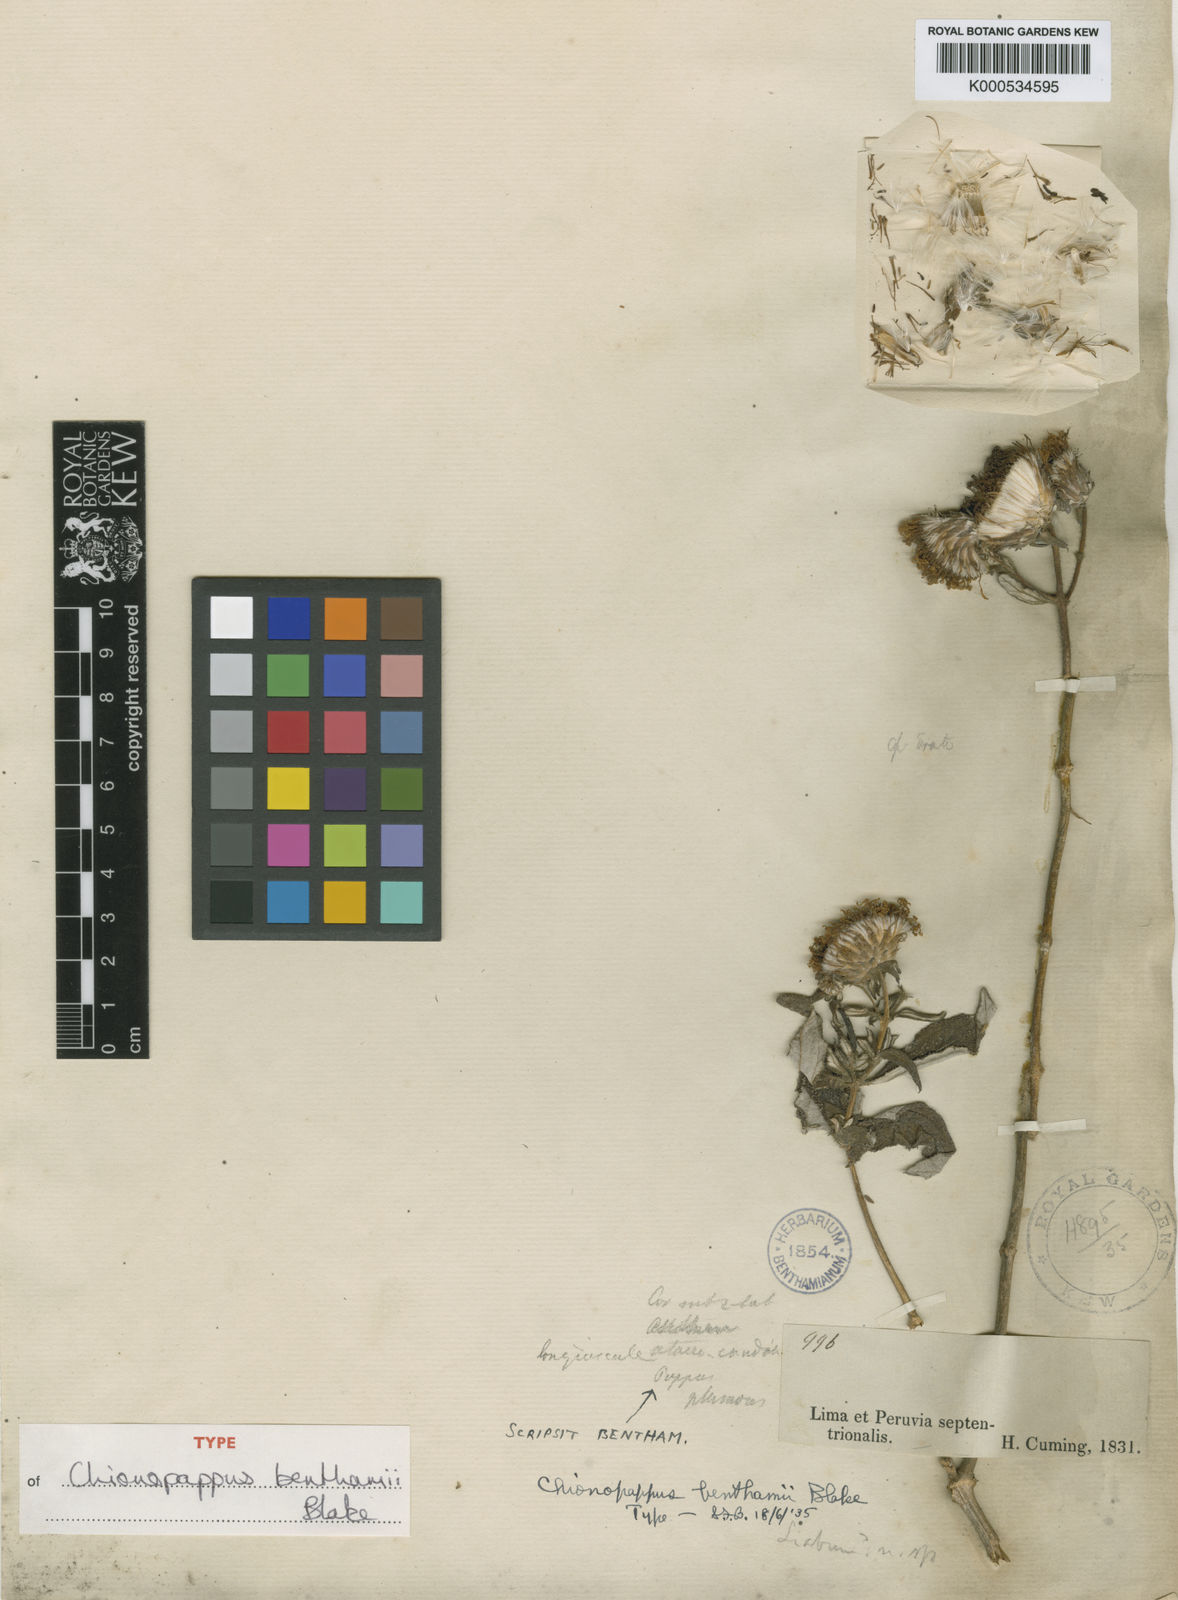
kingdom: Plantae
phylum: Tracheophyta
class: Magnoliopsida
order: Asterales
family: Asteraceae
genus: Chionopappus
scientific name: Chionopappus benthamii
